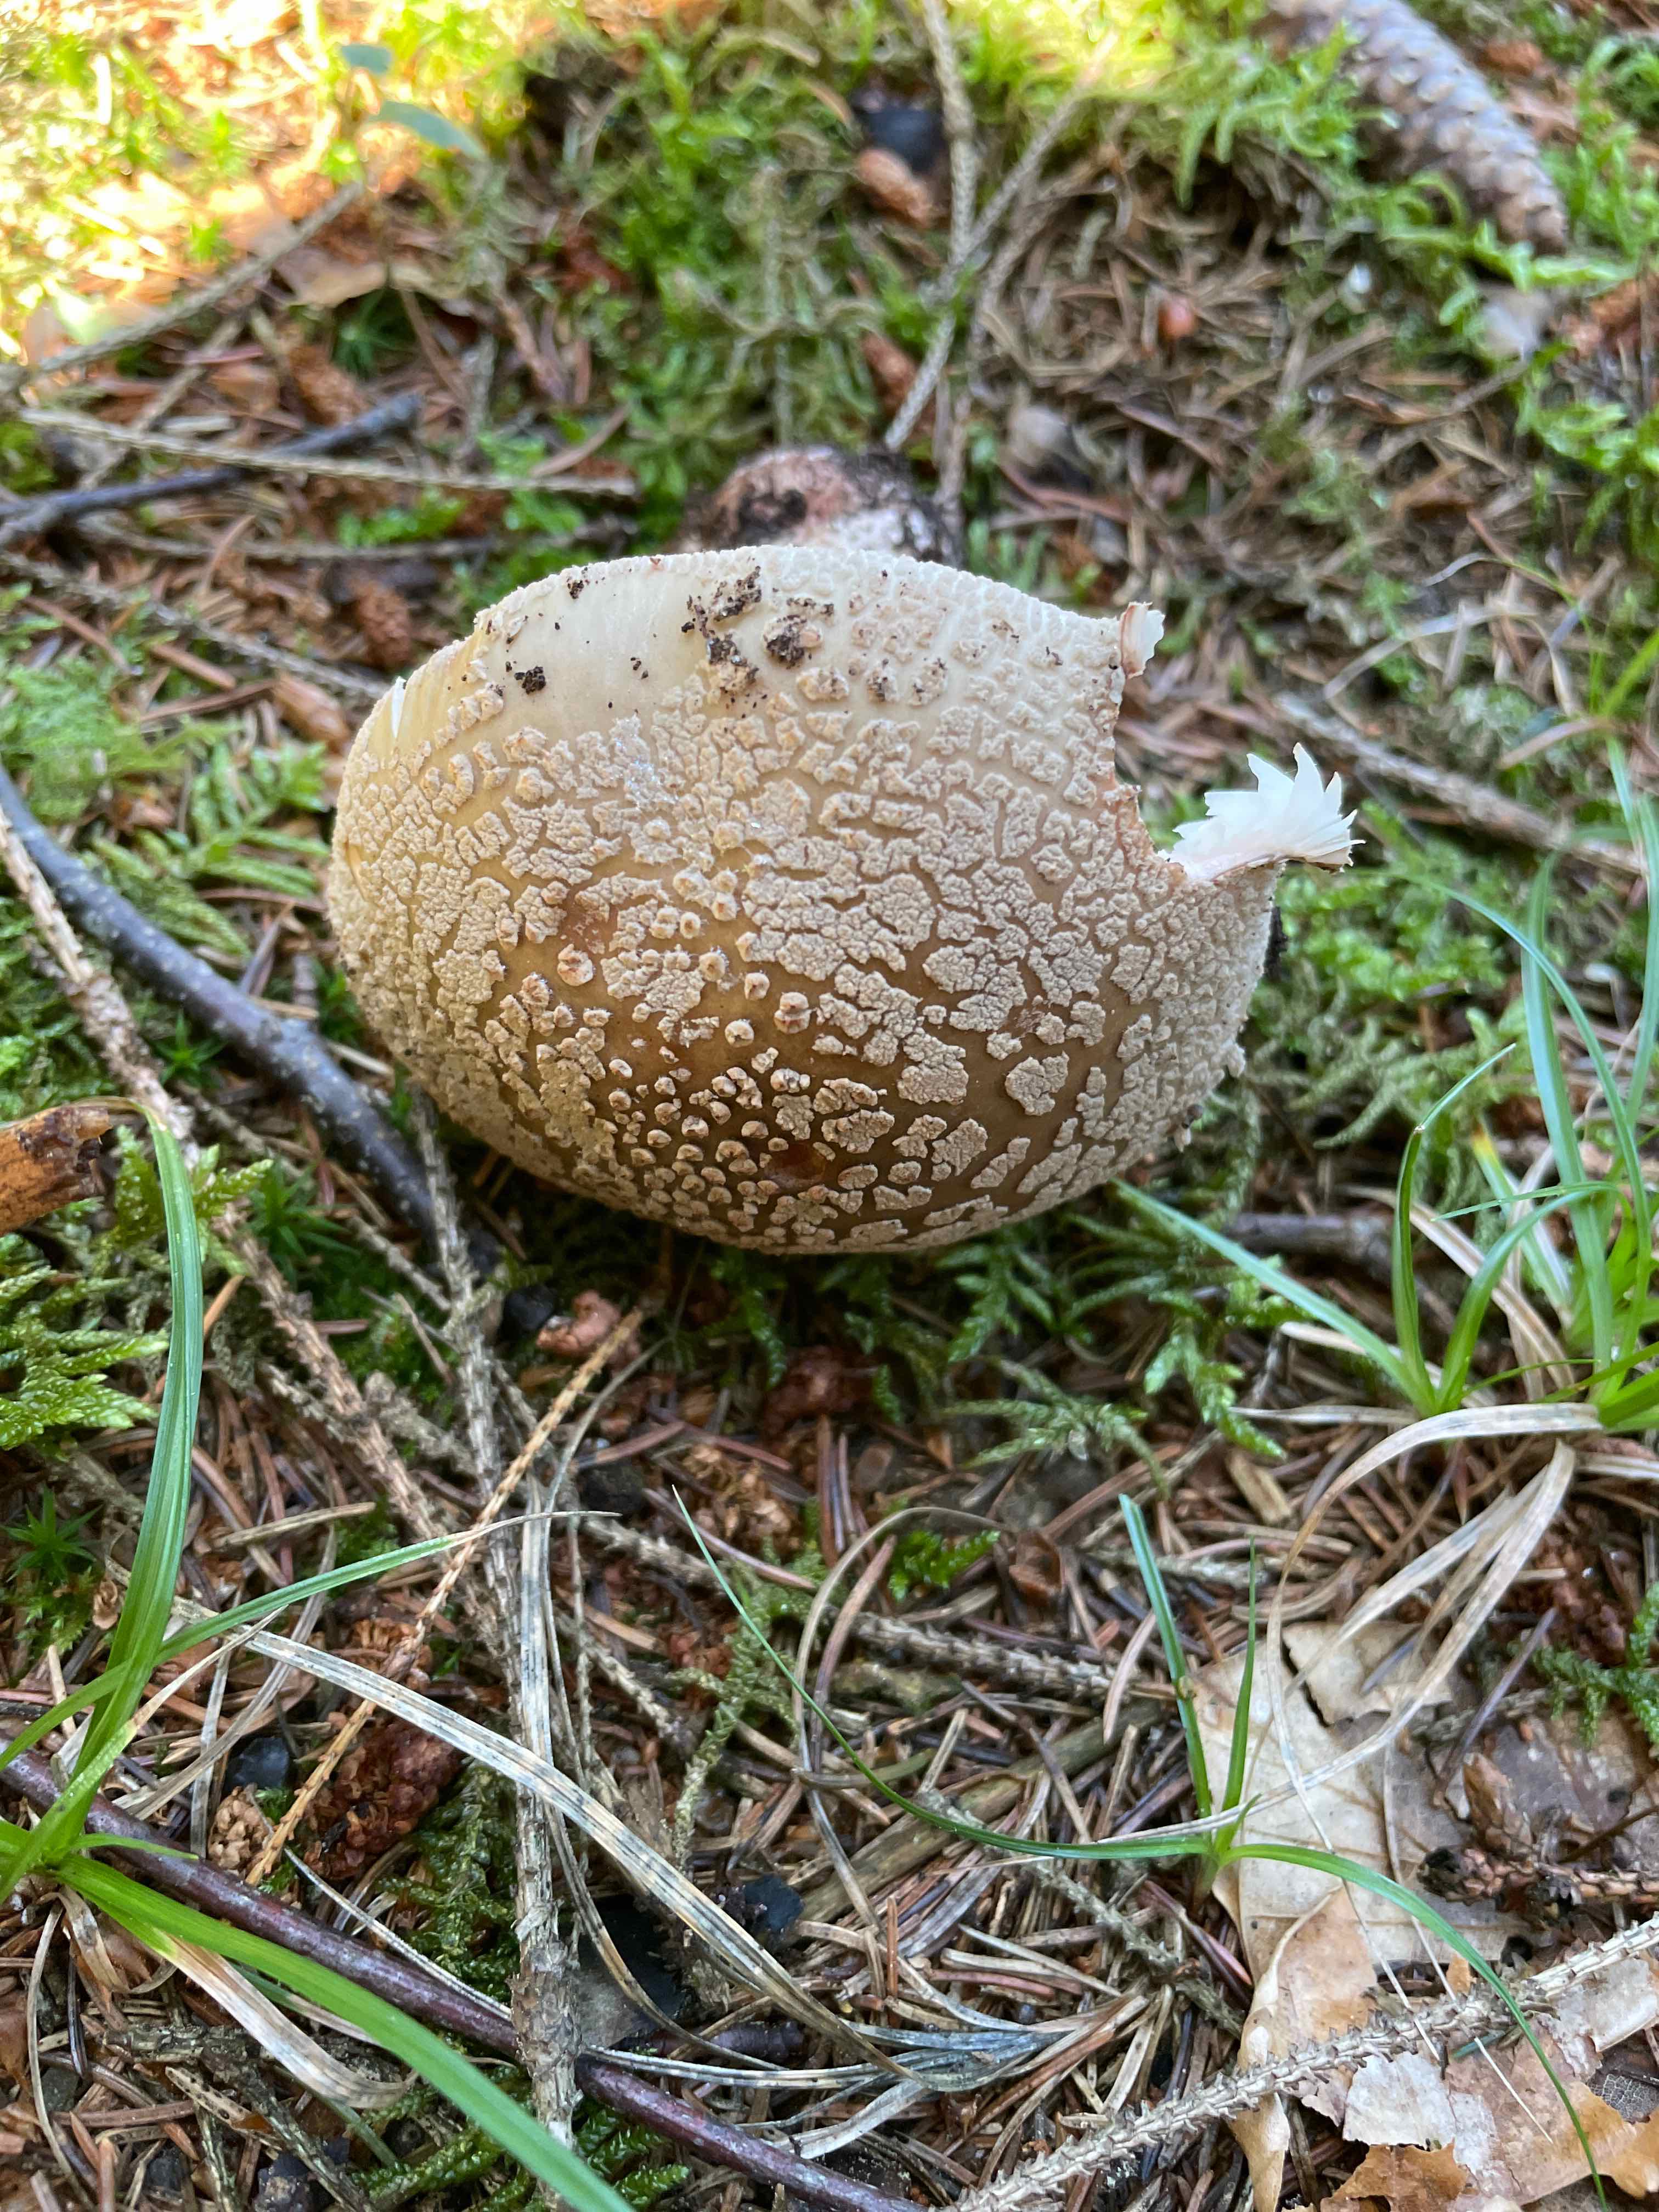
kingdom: Fungi
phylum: Basidiomycota
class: Agaricomycetes
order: Agaricales
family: Amanitaceae
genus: Amanita
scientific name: Amanita rubescens
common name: rødmende fluesvamp
